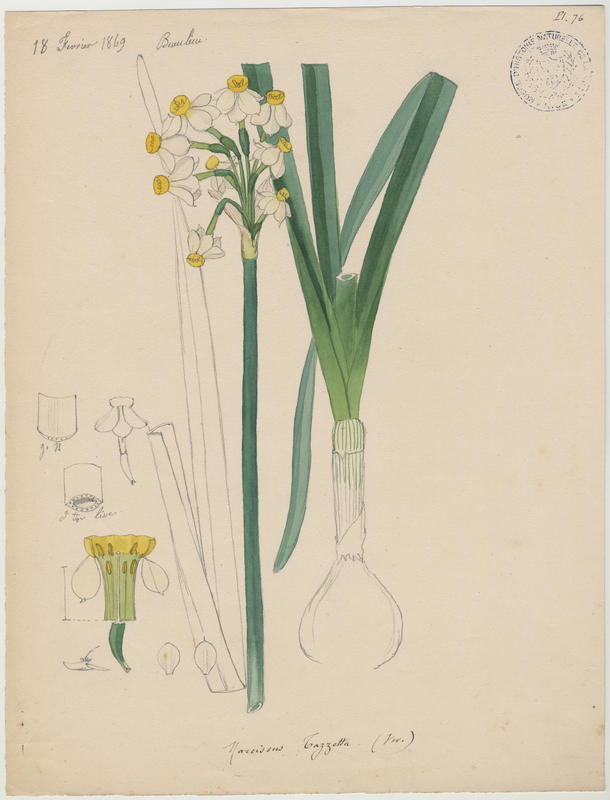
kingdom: Plantae
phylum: Tracheophyta
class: Liliopsida
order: Asparagales
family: Amaryllidaceae
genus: Narcissus
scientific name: Narcissus tazetta
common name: Bunch-flowered daffodil
